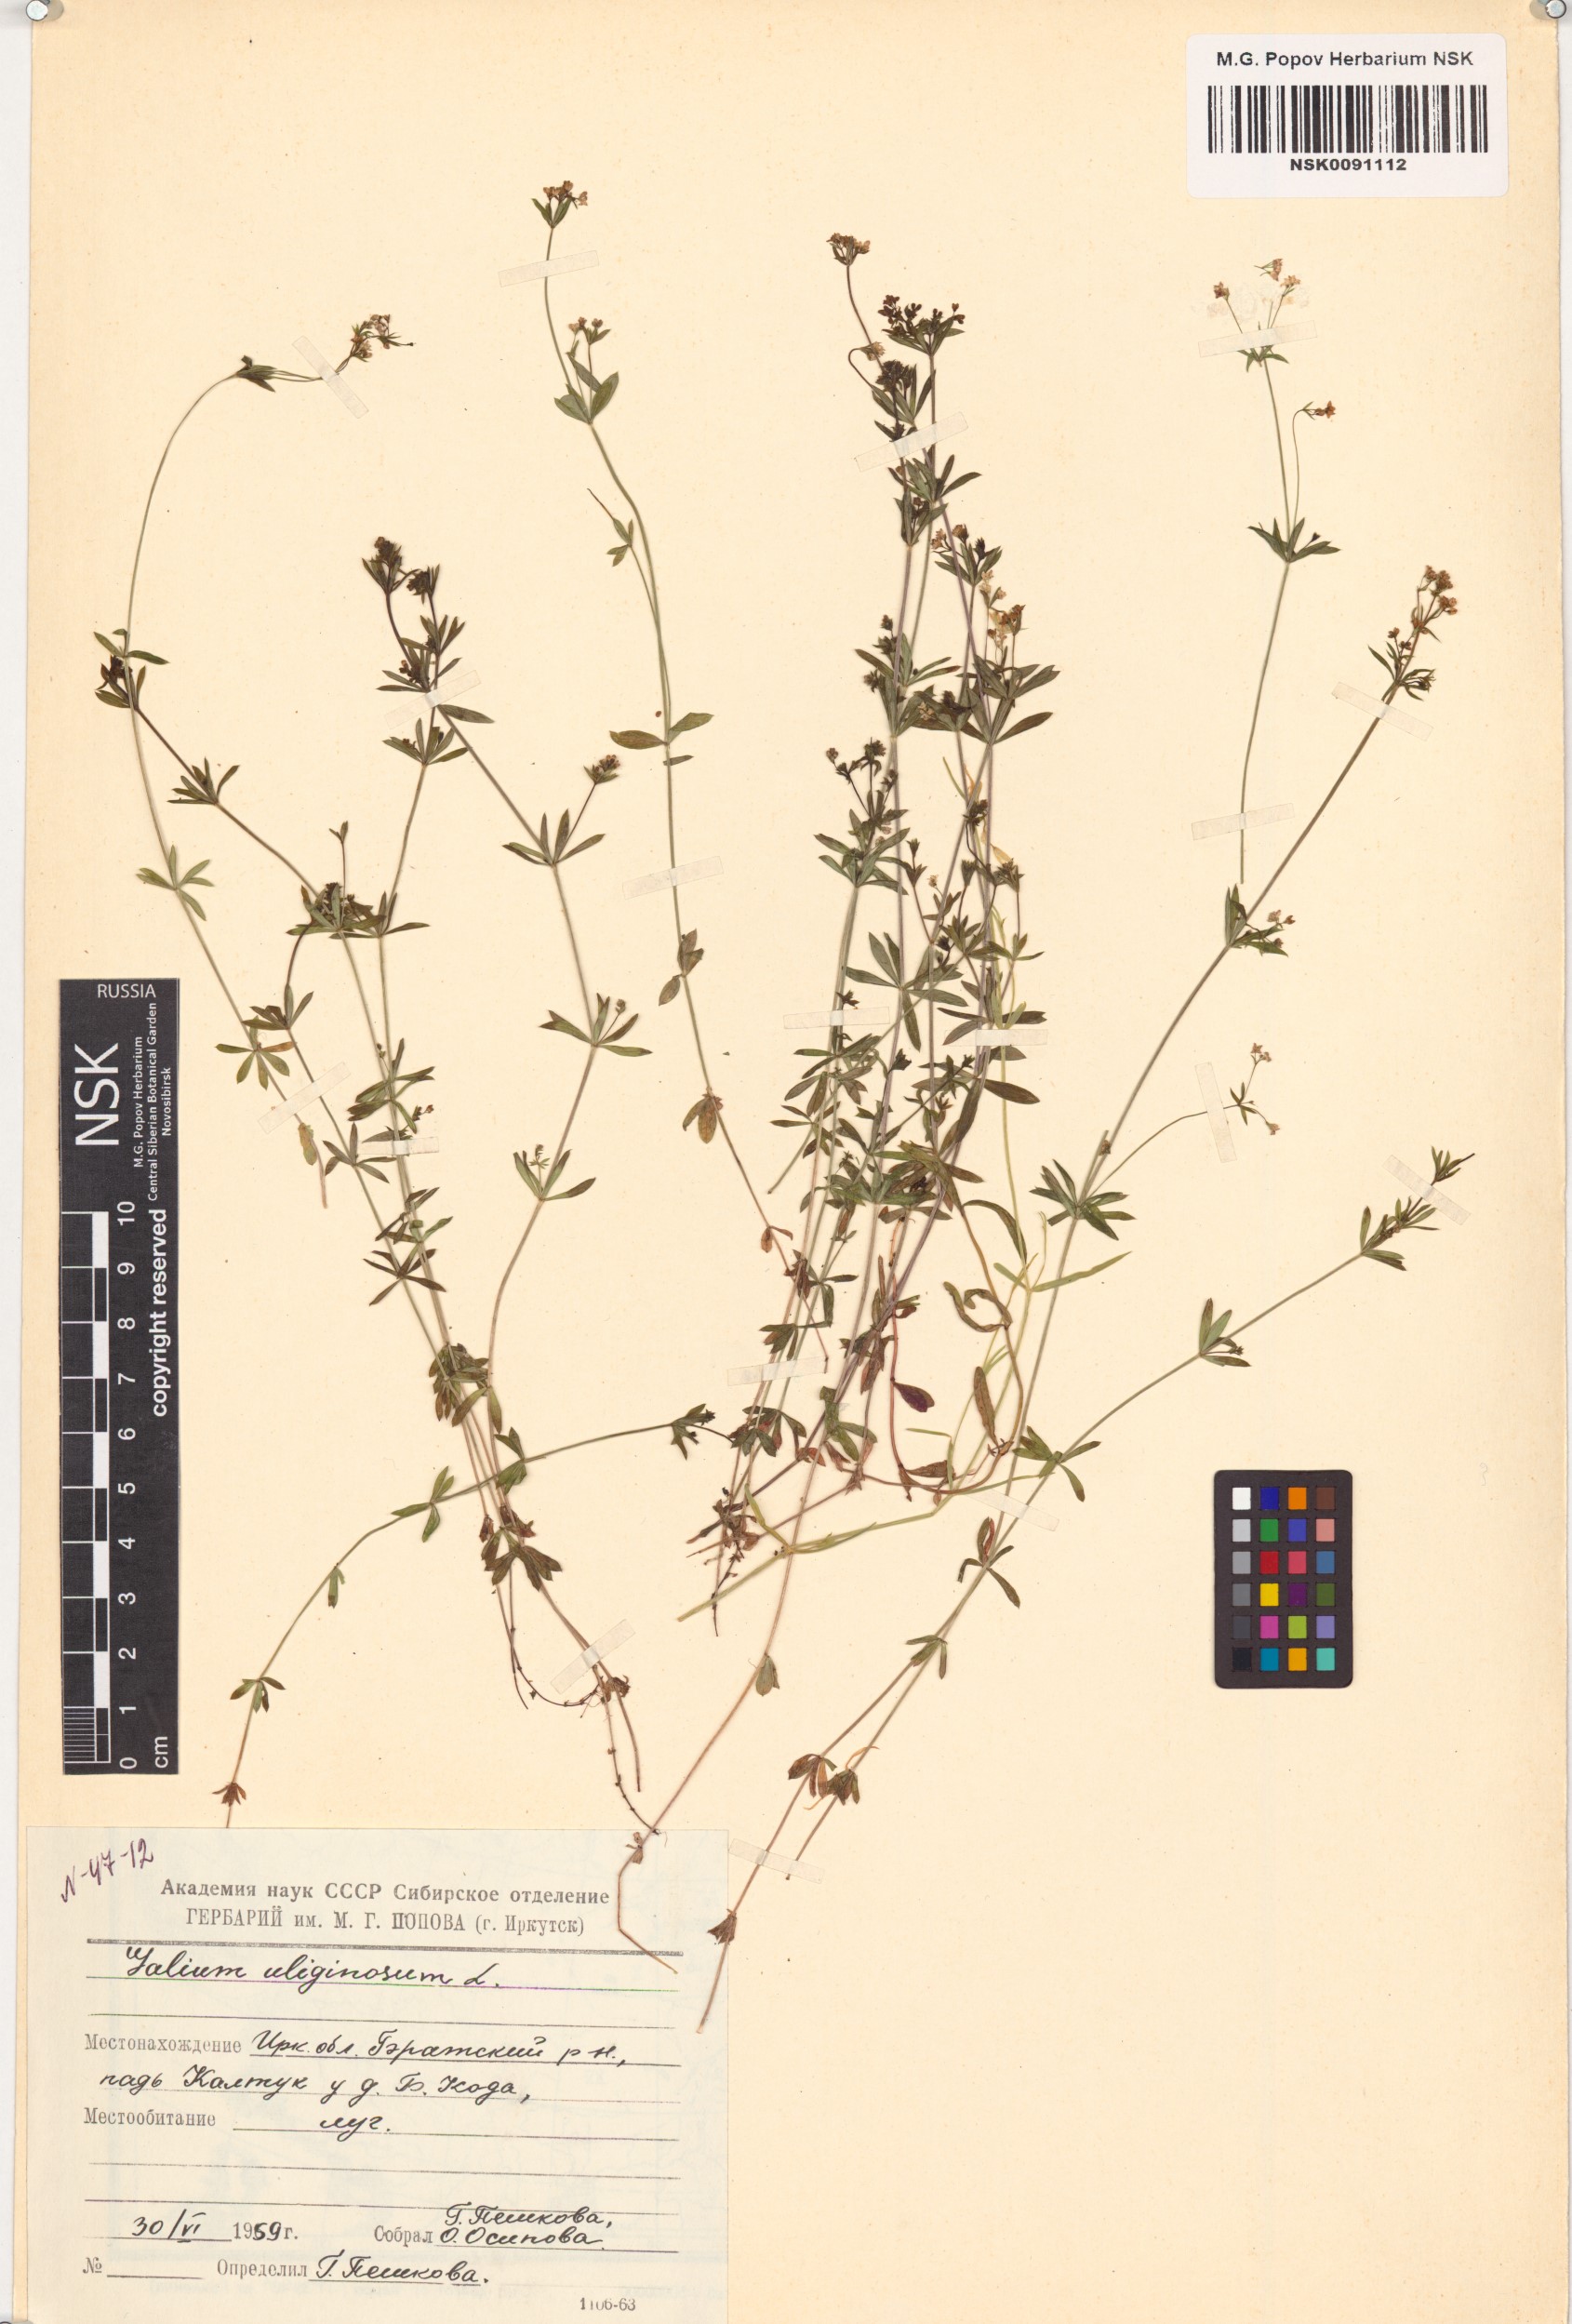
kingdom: Plantae
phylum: Tracheophyta
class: Magnoliopsida
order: Gentianales
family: Rubiaceae
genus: Galium
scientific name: Galium uliginosum
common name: Fen bedstraw
